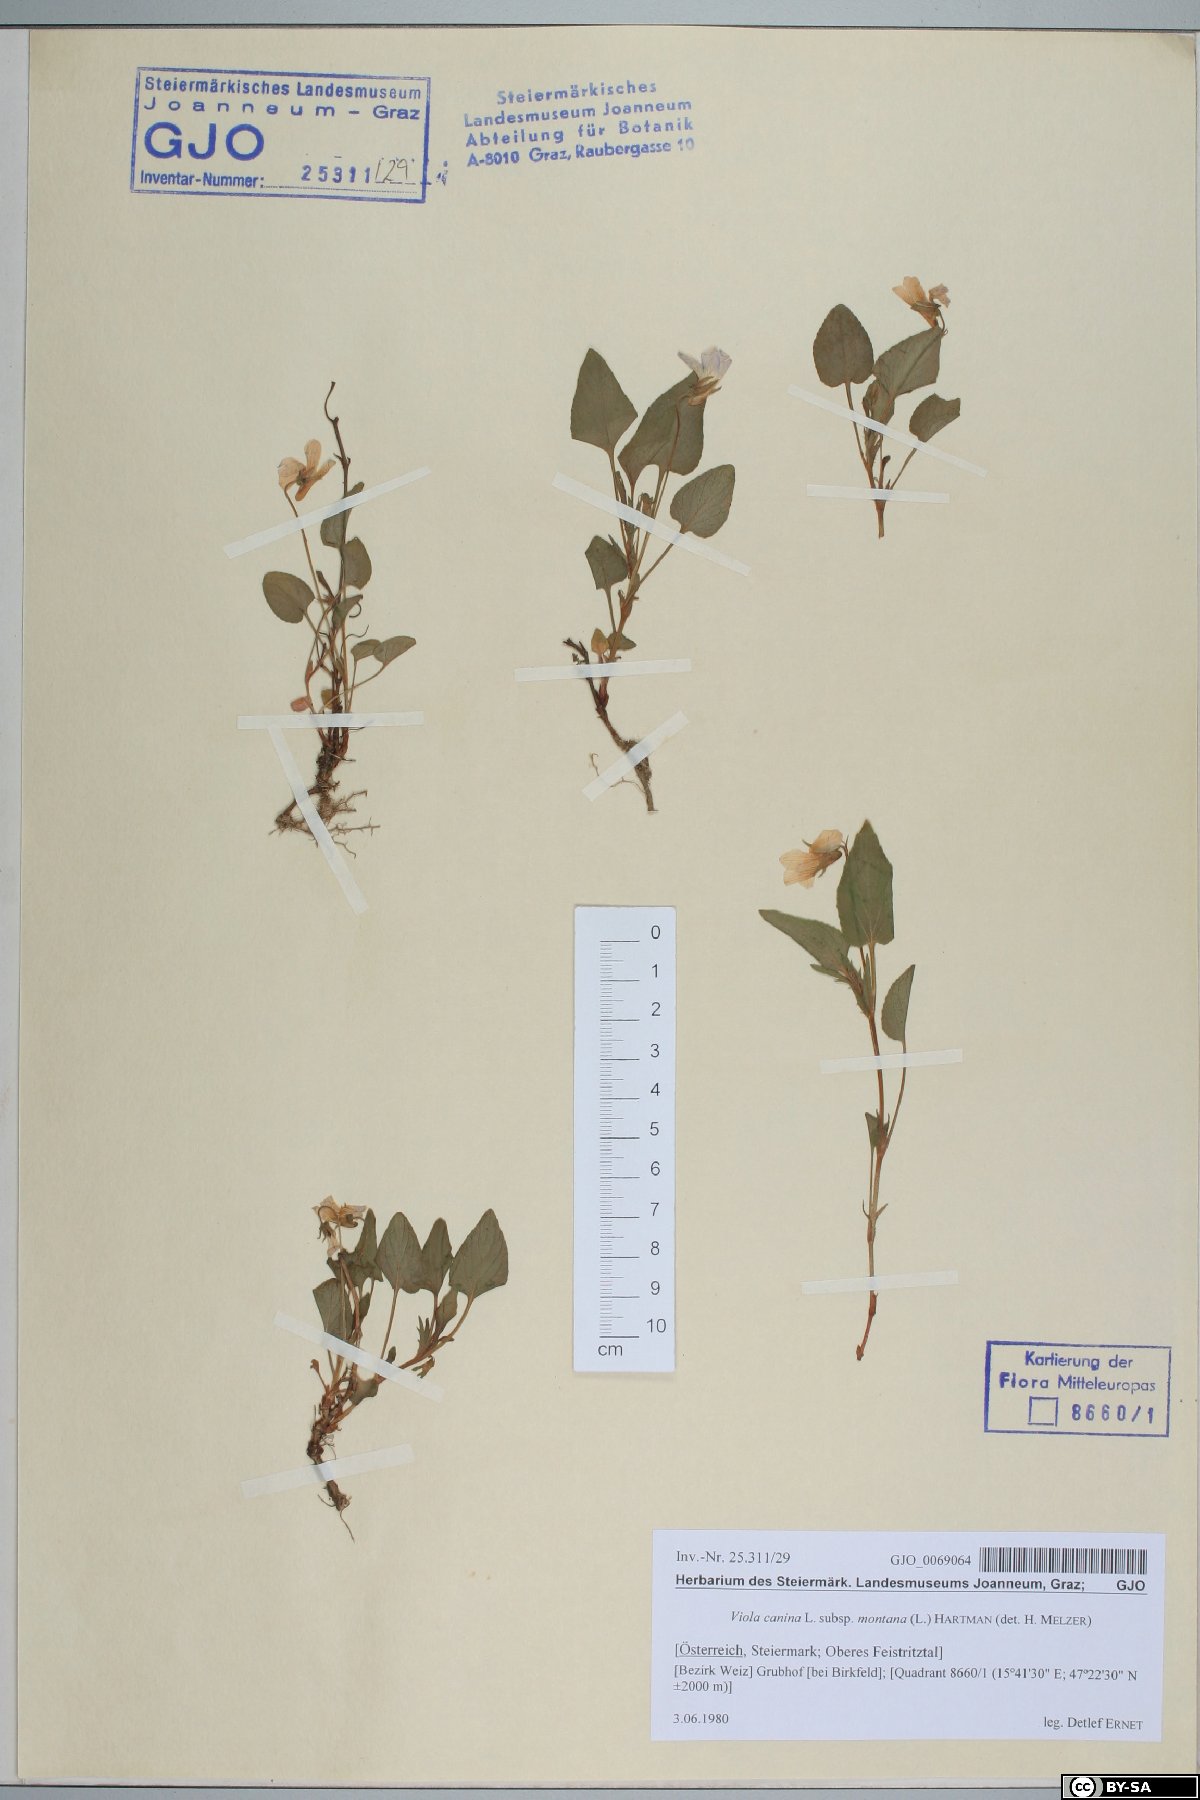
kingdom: Plantae
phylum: Tracheophyta
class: Magnoliopsida
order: Malpighiales
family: Violaceae
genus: Viola
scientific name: Viola ruppii
